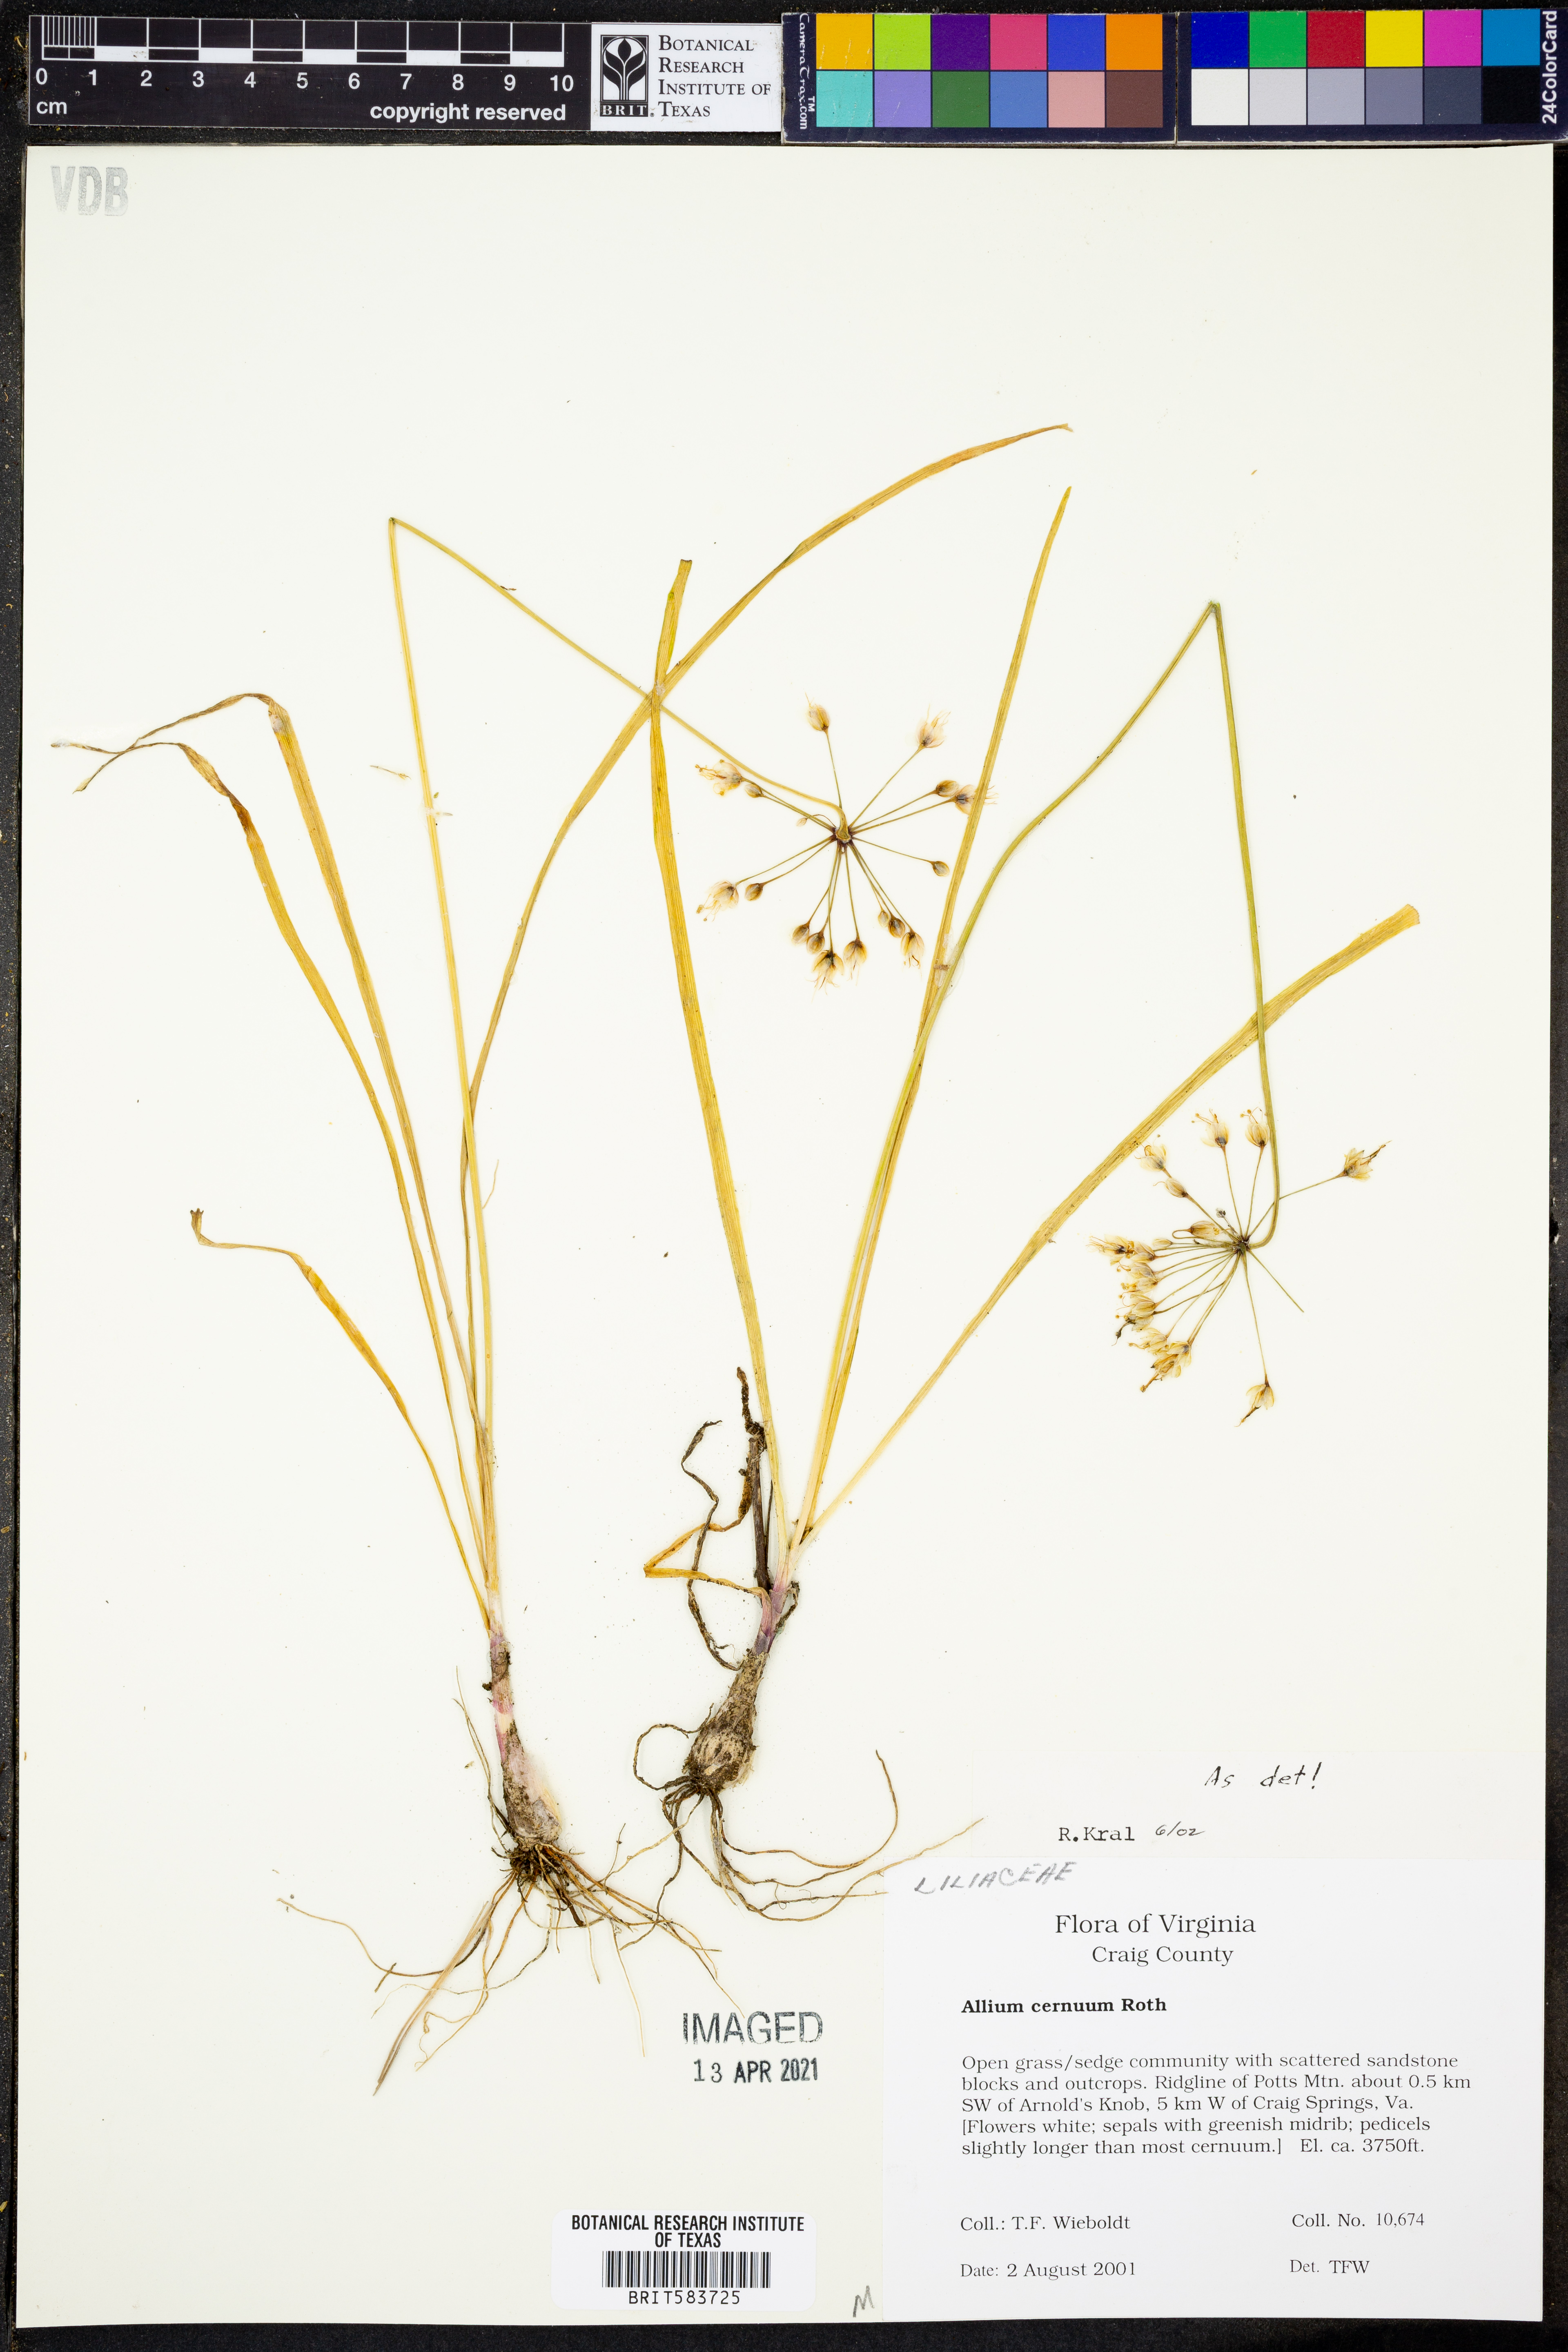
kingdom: Plantae
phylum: Tracheophyta
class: Liliopsida
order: Asparagales
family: Amaryllidaceae
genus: Allium
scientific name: Allium cernuum
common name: Nodding onion
